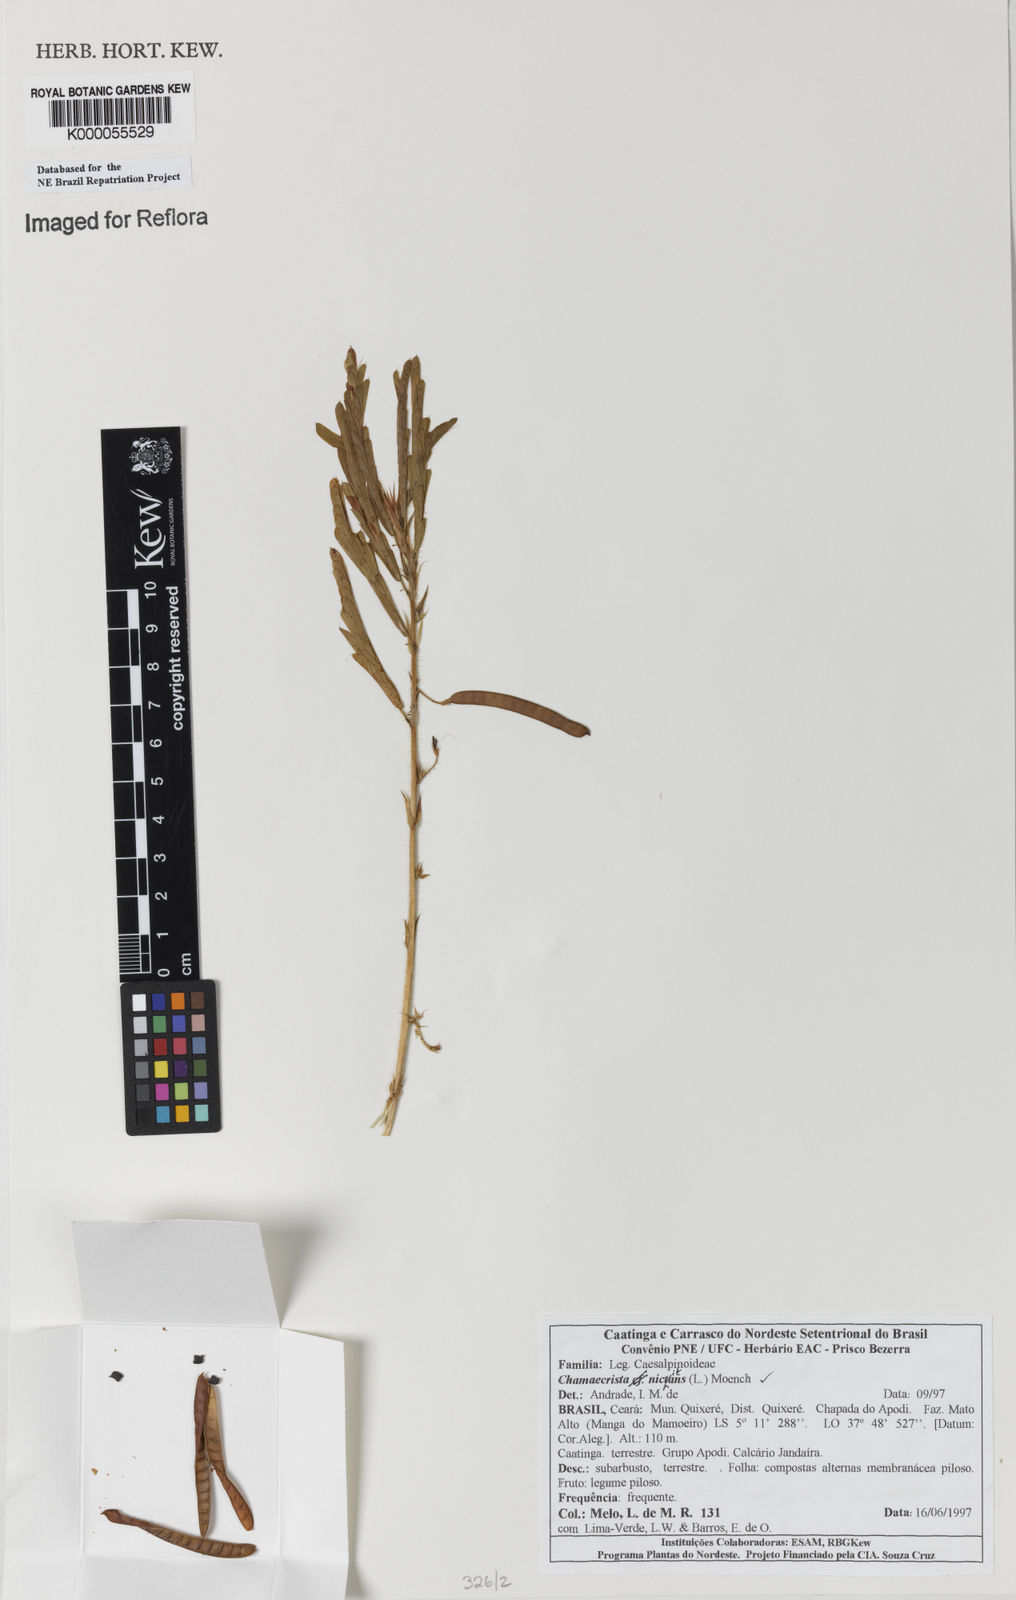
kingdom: Plantae
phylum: Tracheophyta
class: Magnoliopsida
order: Fabales
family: Fabaceae
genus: Chamaecrista
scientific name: Chamaecrista nictitans
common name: Sensitive cassia
